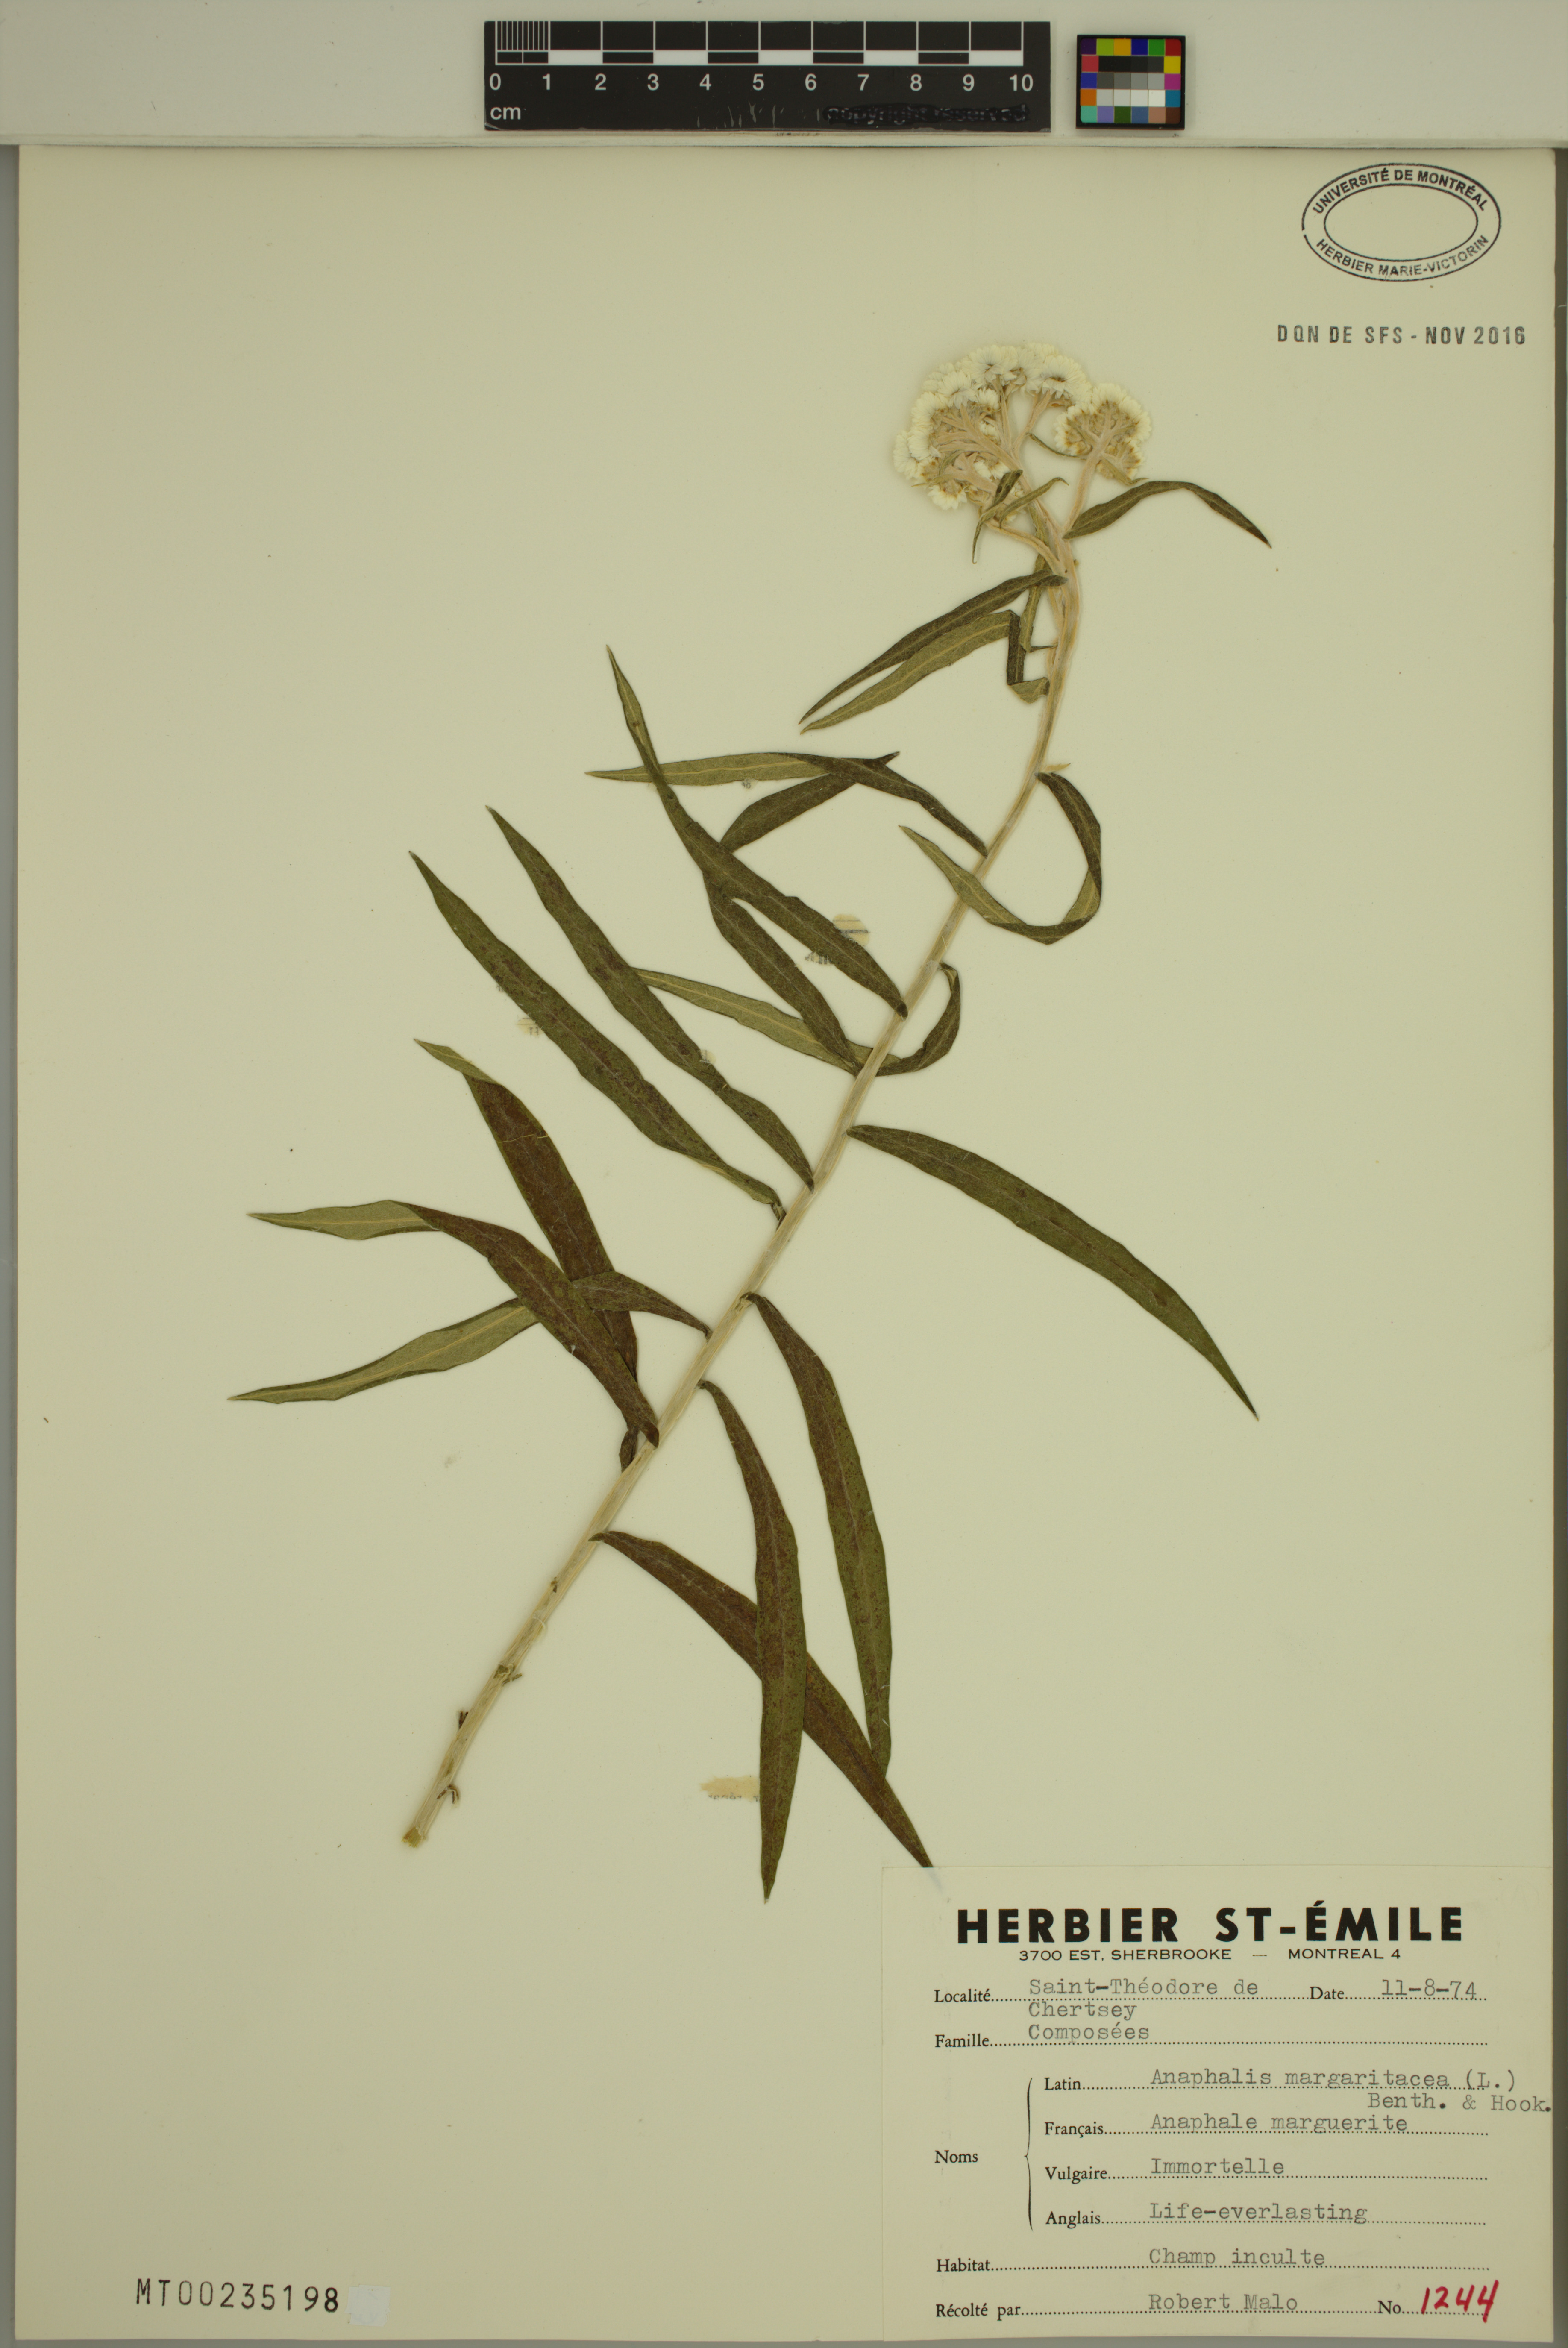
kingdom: Plantae
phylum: Tracheophyta
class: Magnoliopsida
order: Asterales
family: Asteraceae
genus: Anaphalis
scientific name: Anaphalis margaritacea
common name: Pearly everlasting
